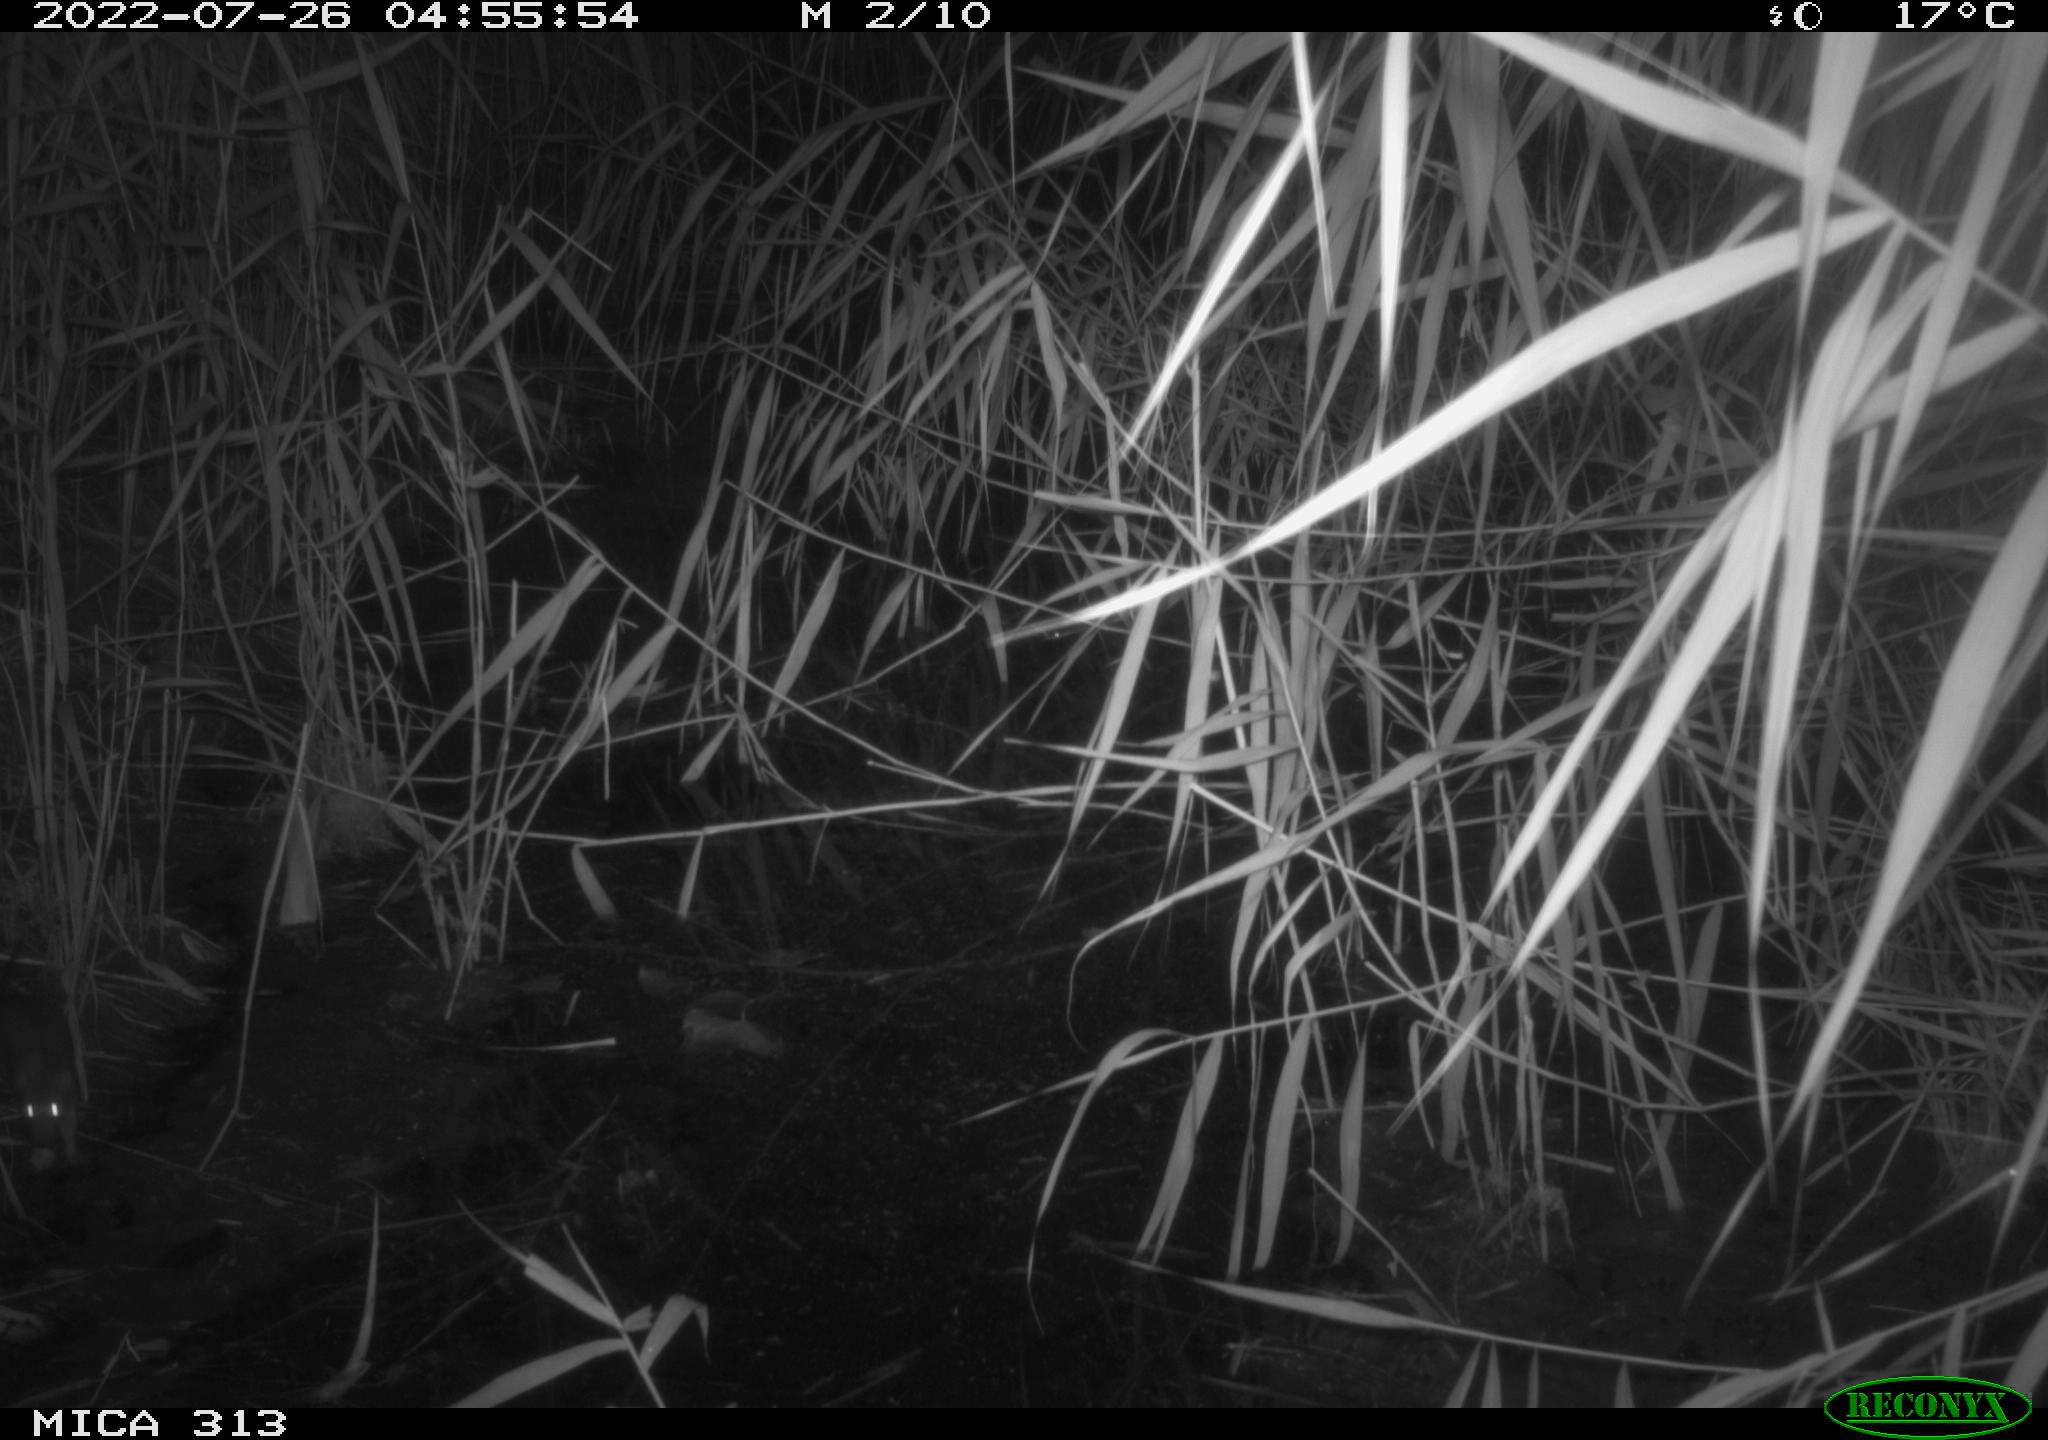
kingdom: Animalia
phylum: Chordata
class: Mammalia
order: Rodentia
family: Muridae
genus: Rattus
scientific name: Rattus norvegicus
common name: Brown rat
